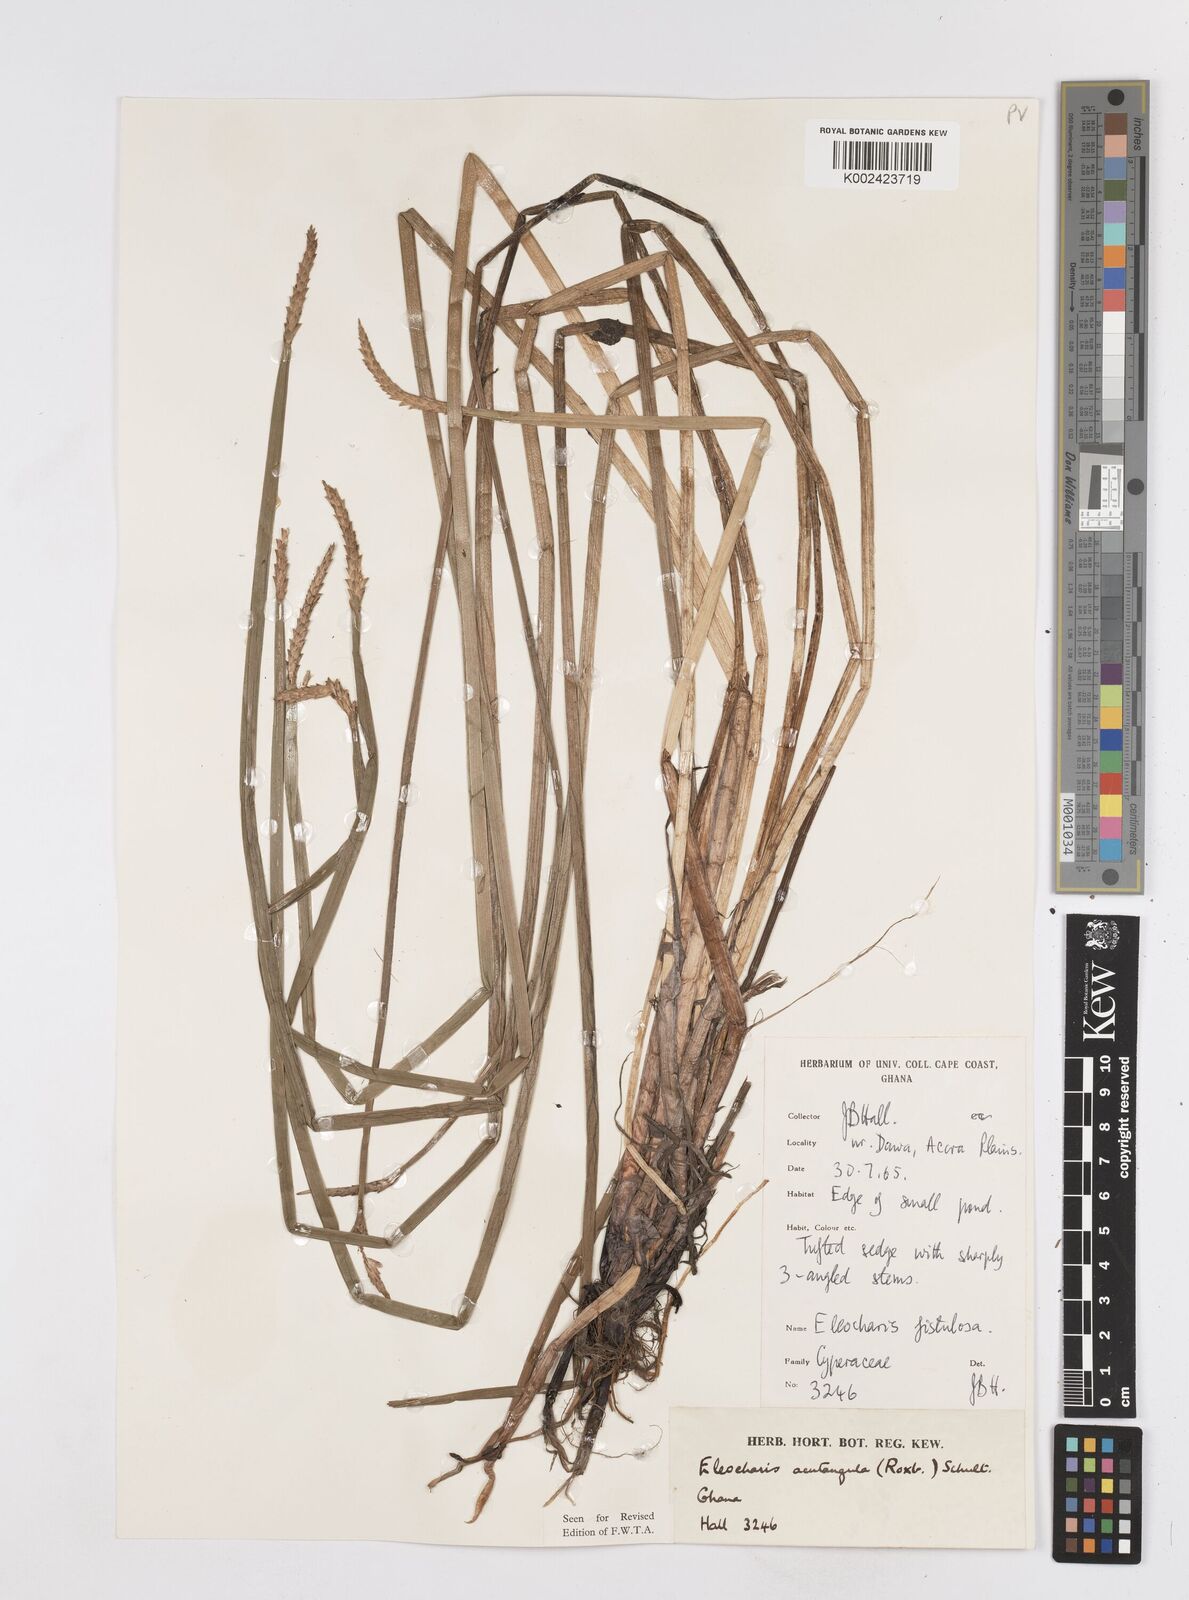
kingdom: Plantae
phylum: Tracheophyta
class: Liliopsida
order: Poales
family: Cyperaceae
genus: Eleocharis
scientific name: Eleocharis acutangula
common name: Acute spikerush
